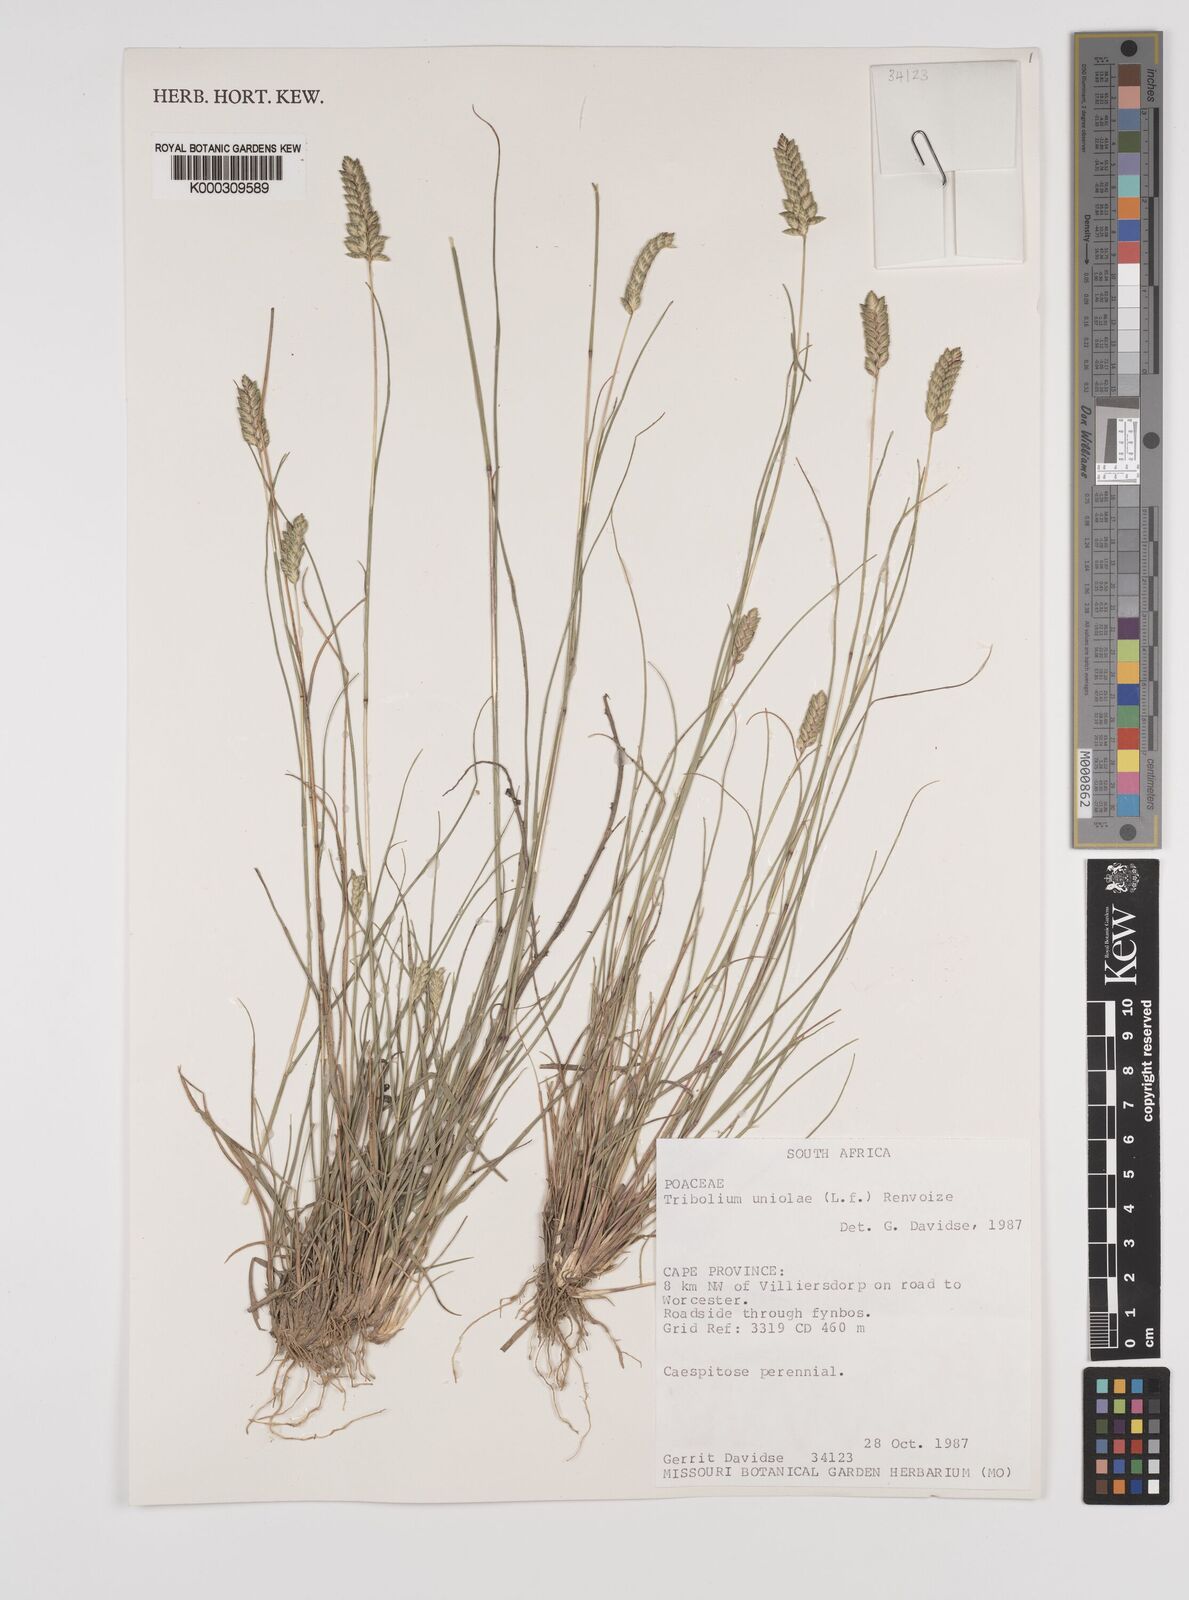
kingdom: Plantae
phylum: Tracheophyta
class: Liliopsida
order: Poales
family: Poaceae
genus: Tribolium
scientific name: Tribolium uniolae
